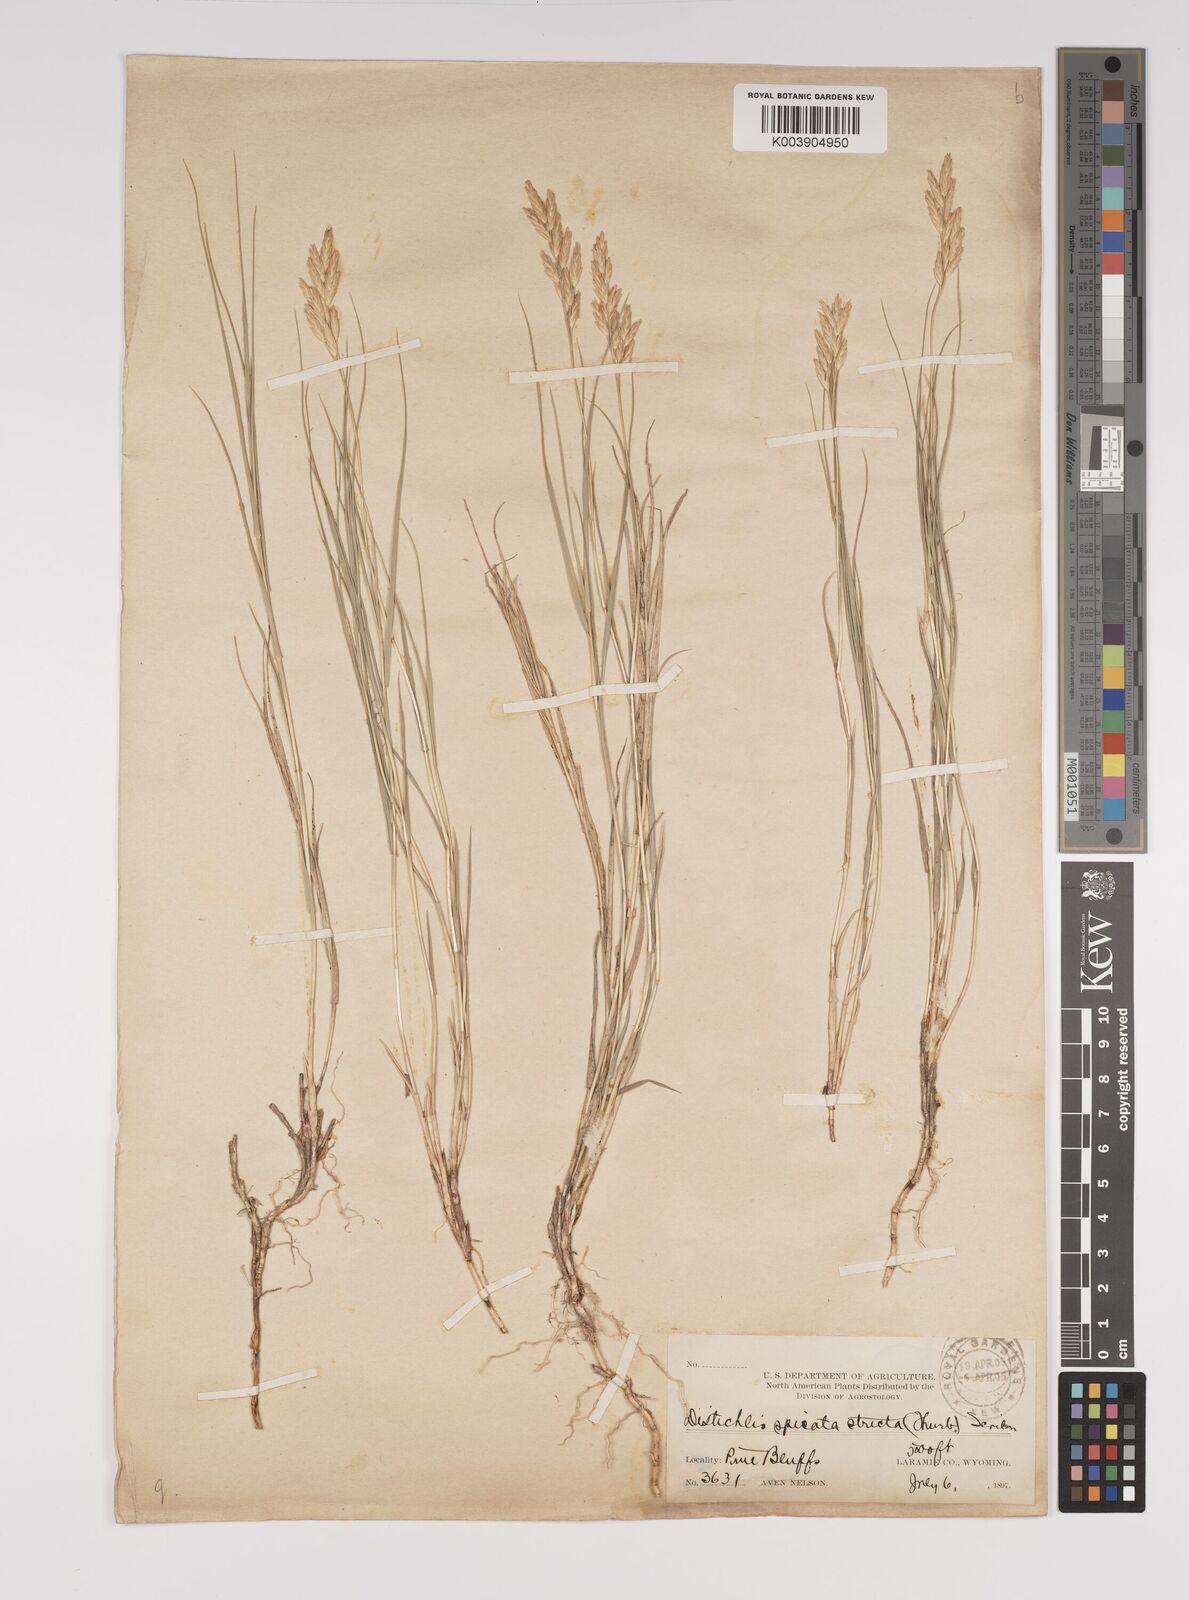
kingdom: Plantae
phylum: Tracheophyta
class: Liliopsida
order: Poales
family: Poaceae
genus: Distichlis
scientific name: Distichlis spicata
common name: Saltgrass
